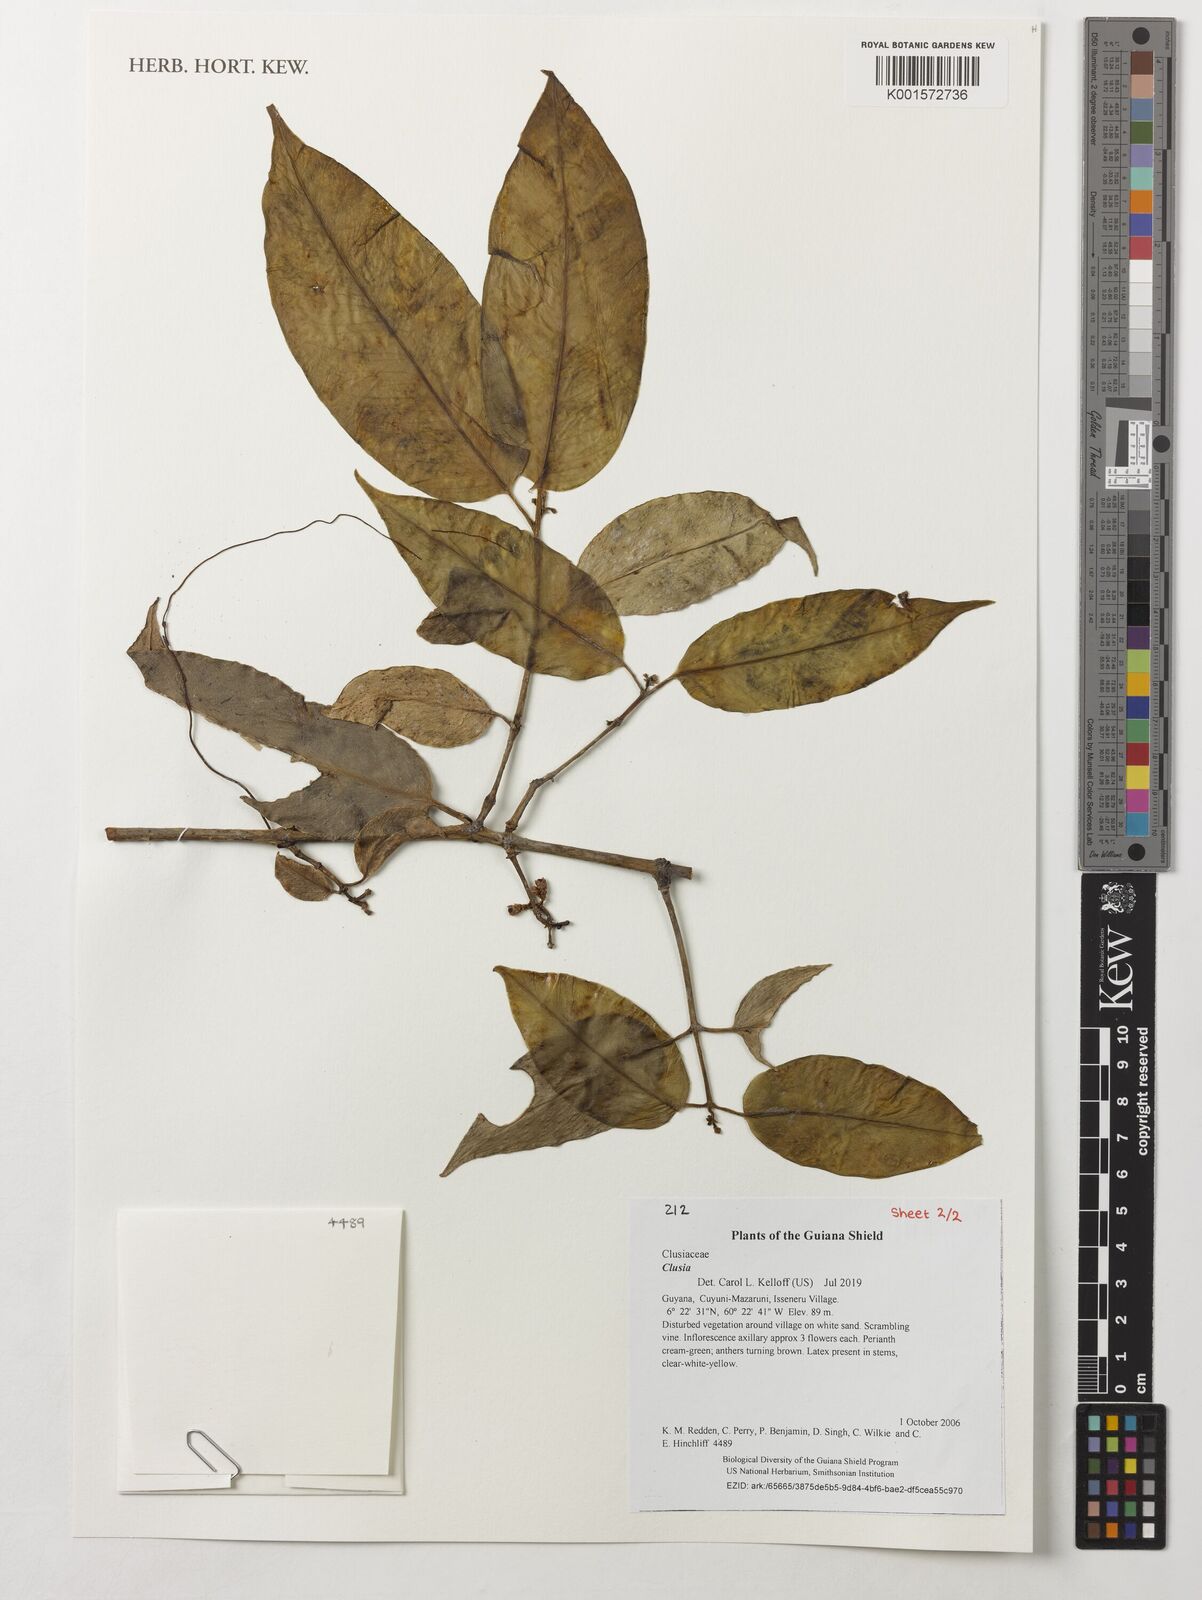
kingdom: Plantae
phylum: Tracheophyta
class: Magnoliopsida
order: Malpighiales
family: Clusiaceae
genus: Clusia
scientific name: Clusia
